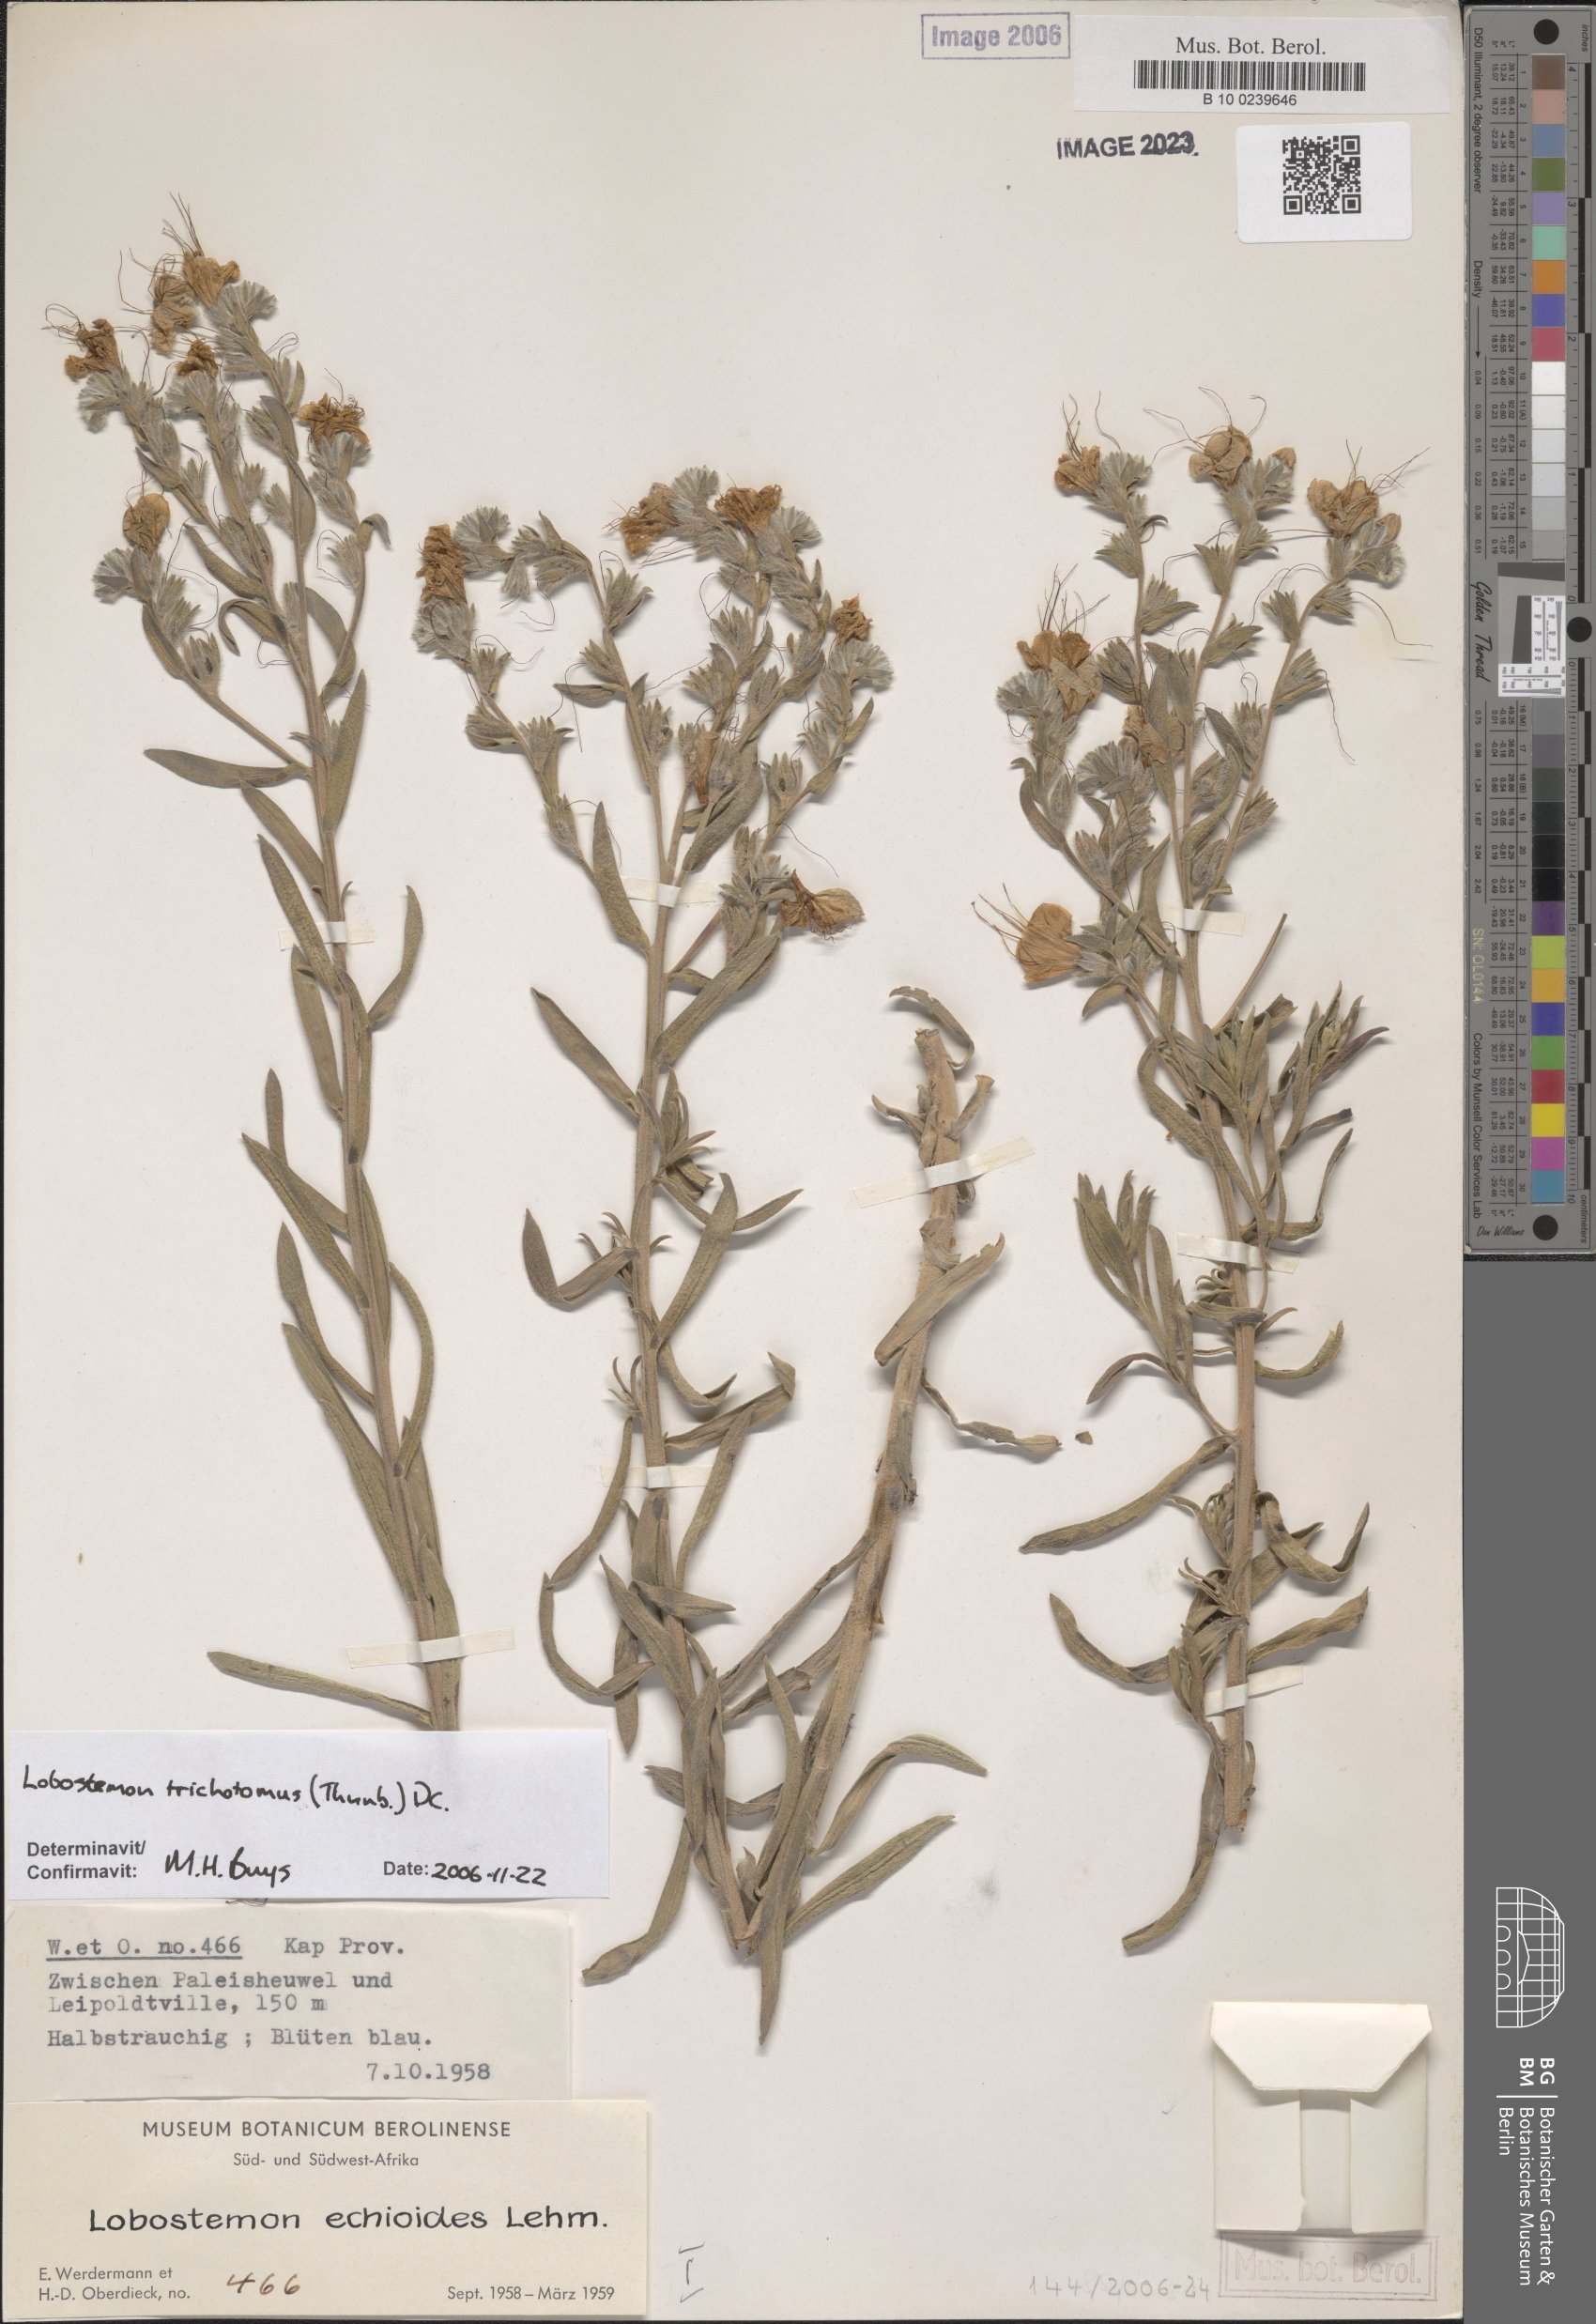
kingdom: Plantae
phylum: Tracheophyta
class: Magnoliopsida
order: Boraginales
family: Boraginaceae
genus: Lobostemon
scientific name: Lobostemon echioides
